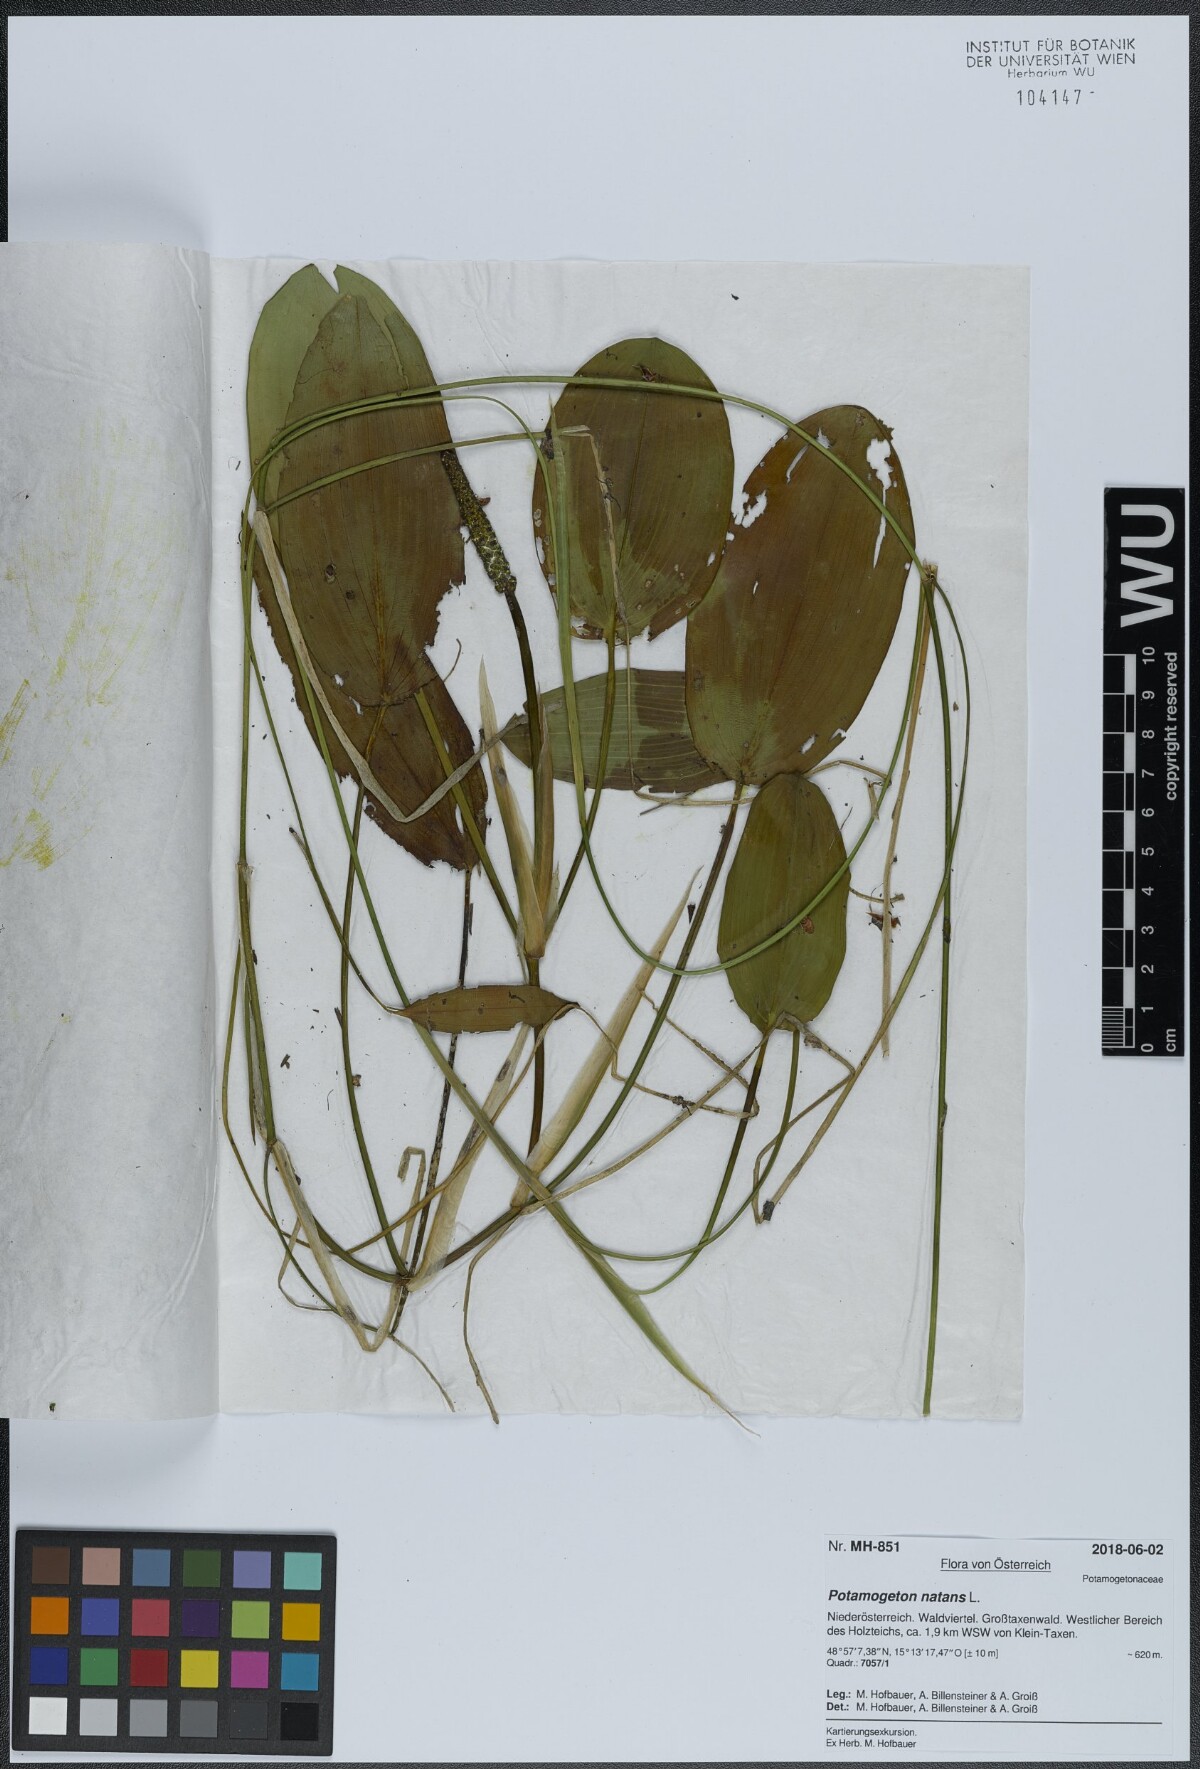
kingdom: Plantae
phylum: Tracheophyta
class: Liliopsida
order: Alismatales
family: Potamogetonaceae
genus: Potamogeton
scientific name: Potamogeton natans
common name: Broad-leaved pondweed
